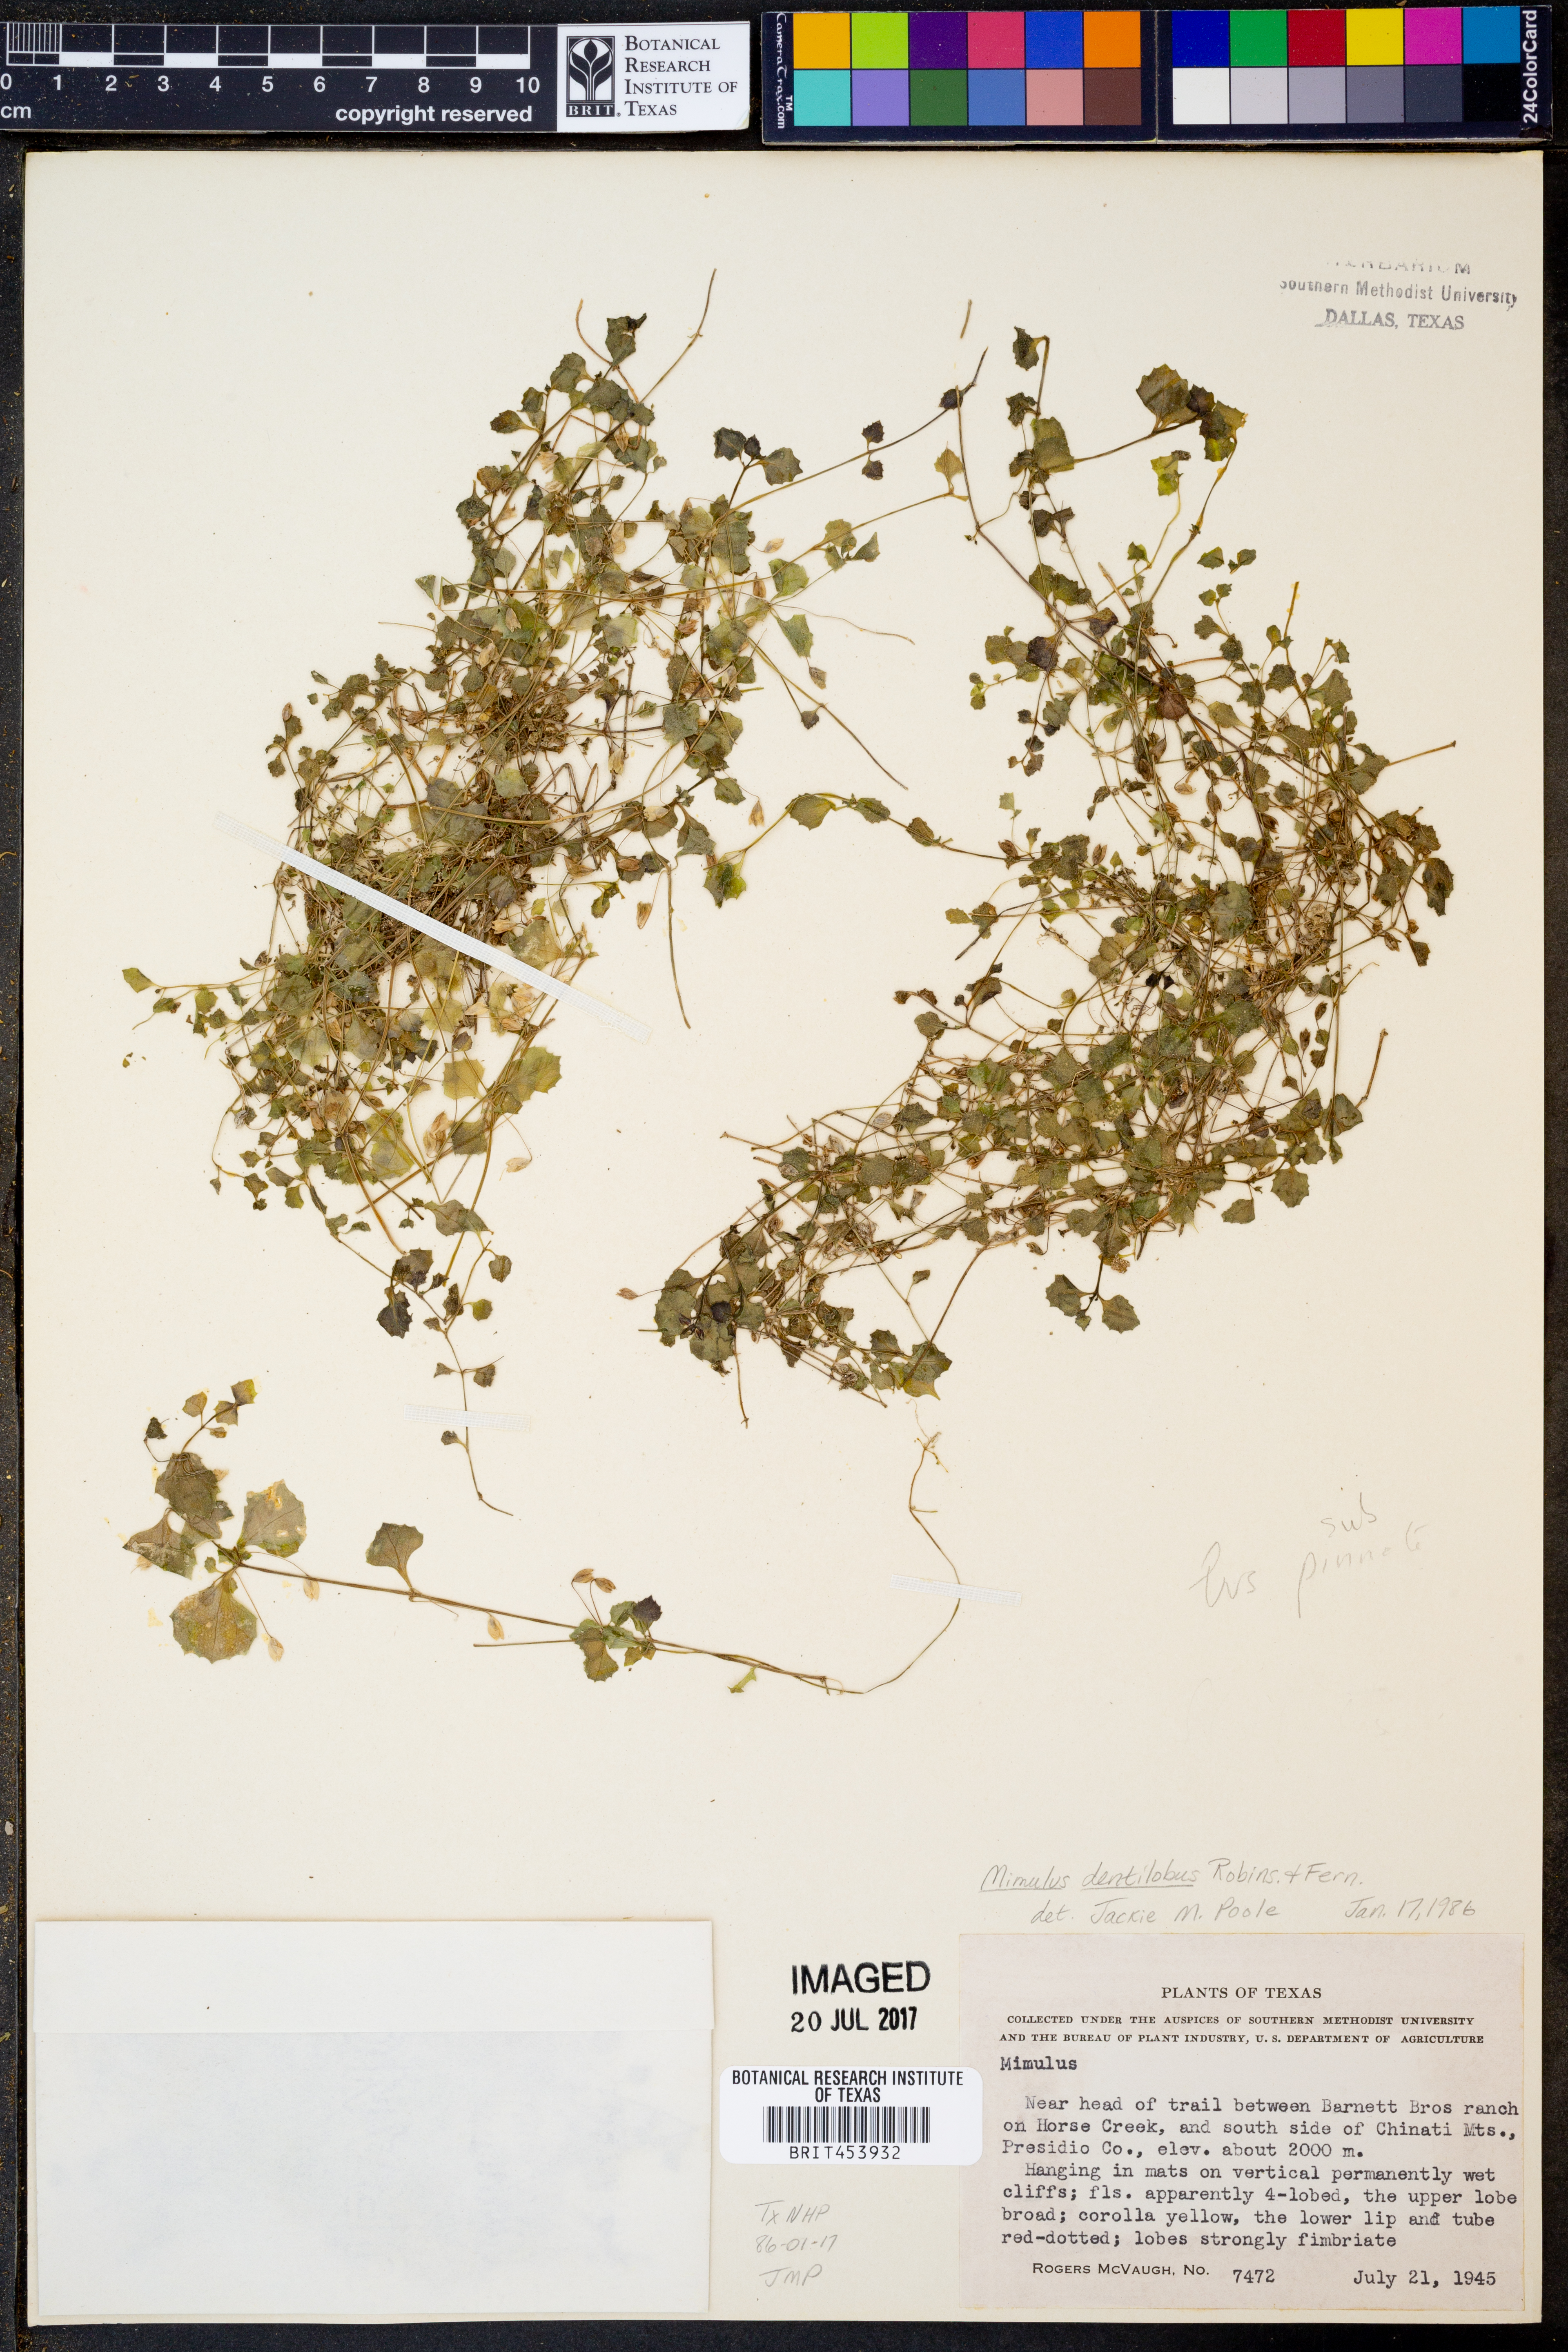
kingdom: Plantae
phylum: Tracheophyta
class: Magnoliopsida
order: Lamiales
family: Phrymaceae
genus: Erythranthe
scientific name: Erythranthe dentiloba
